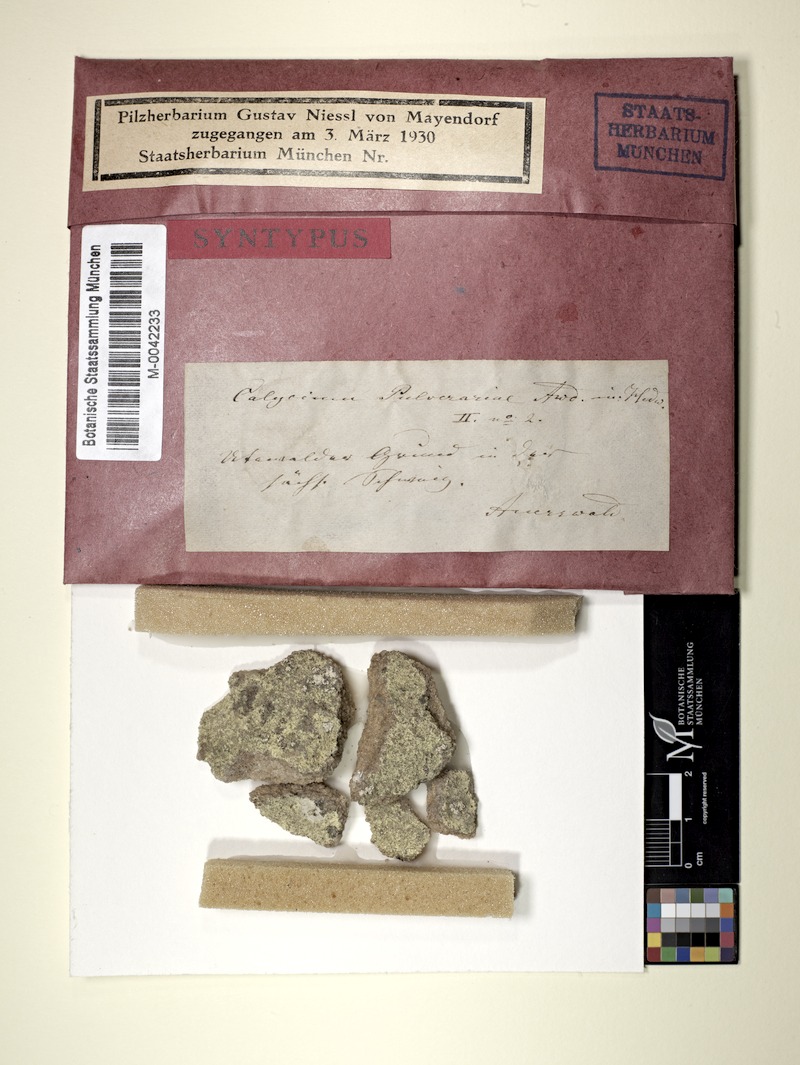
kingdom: Fungi
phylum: Ascomycota
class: Lecanoromycetes
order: Pertusariales
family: Microcaliciaceae
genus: Microcalicium
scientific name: Microcalicium arenarium
